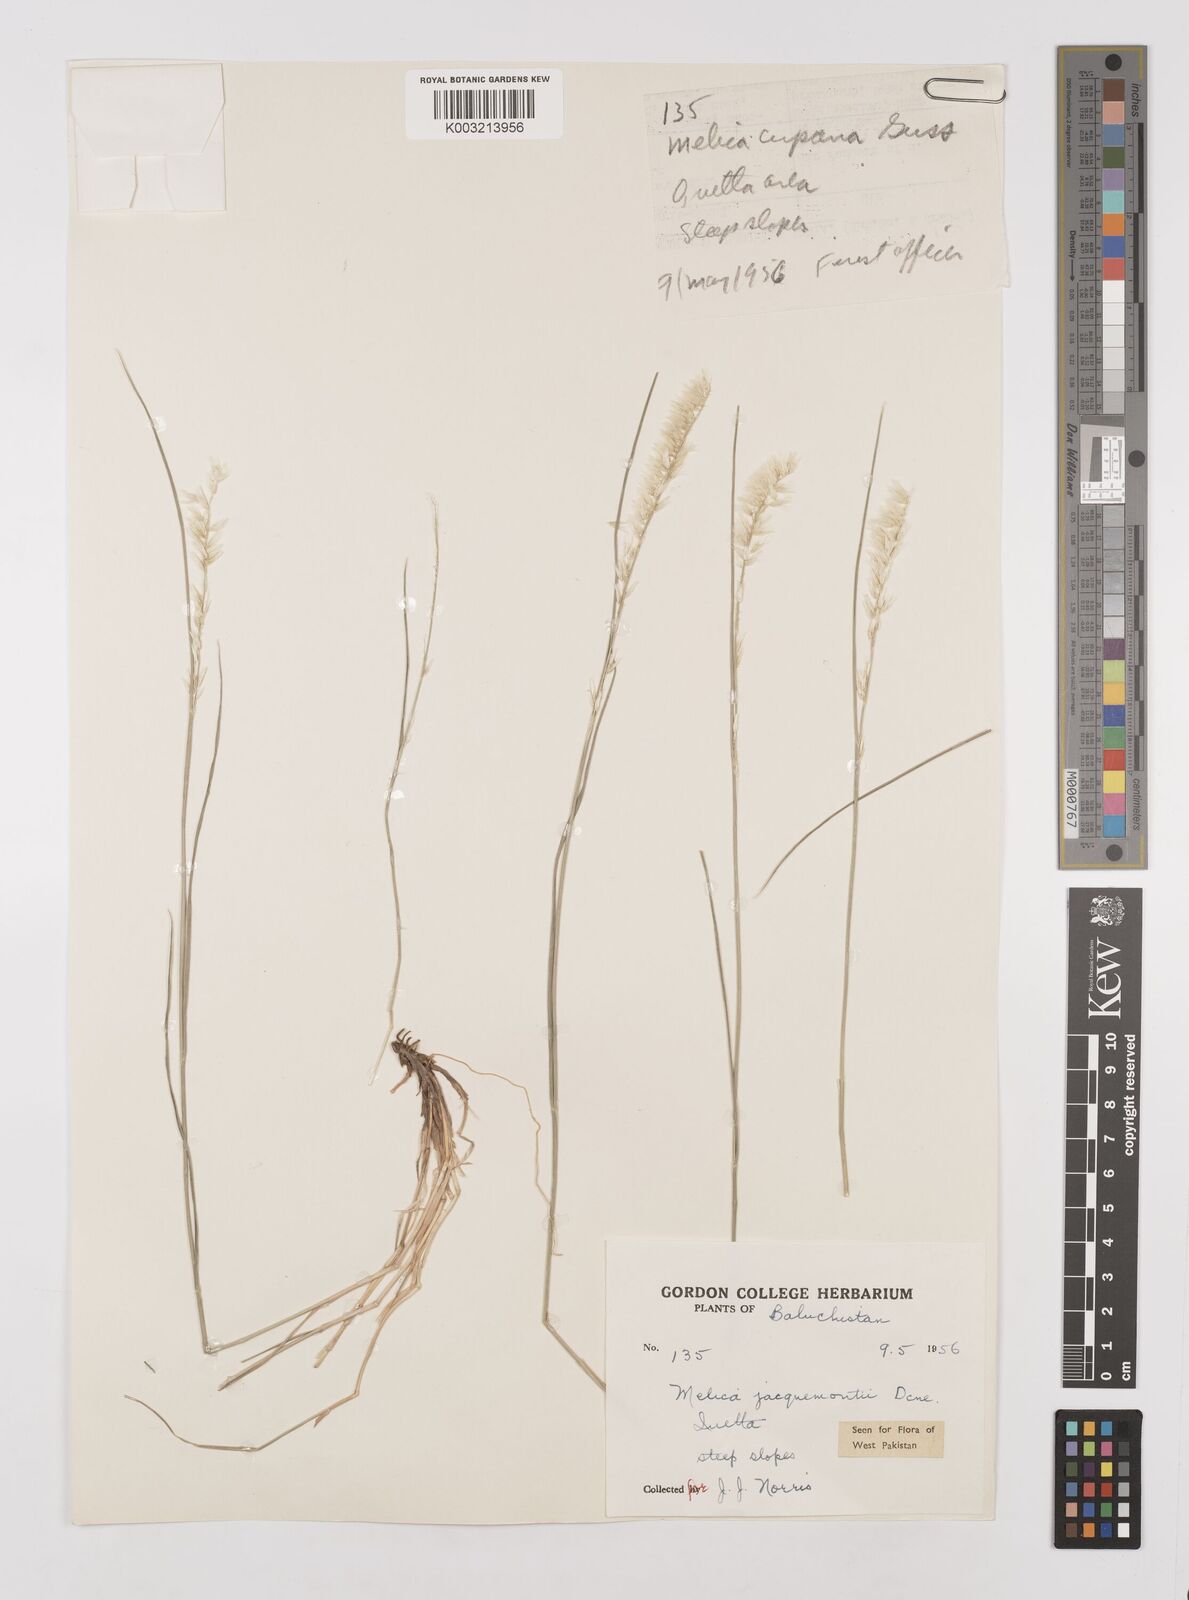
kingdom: Plantae
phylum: Tracheophyta
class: Liliopsida
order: Poales
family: Poaceae
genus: Melica
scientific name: Melica persica
